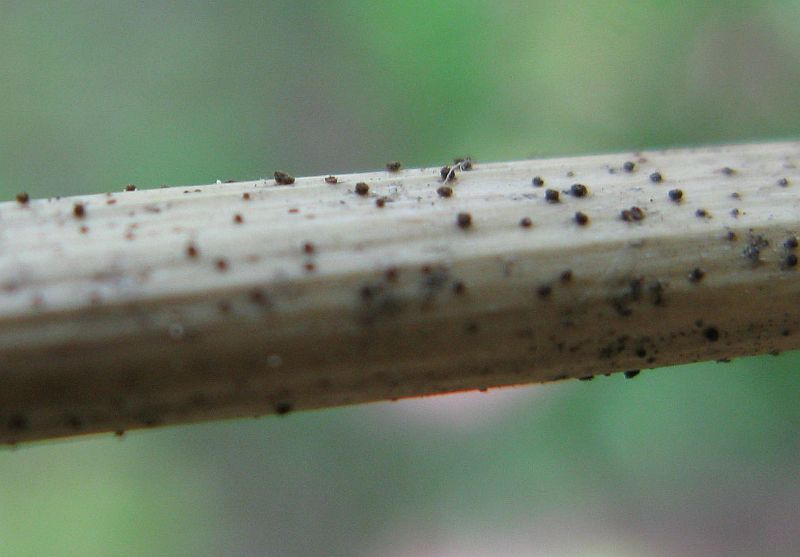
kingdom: Fungi
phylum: Ascomycota
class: Leotiomycetes
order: Helotiales
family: Solenopeziaceae
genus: Lasiobelonium
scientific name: Lasiobelonium nidulus
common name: rede-frynseskive
